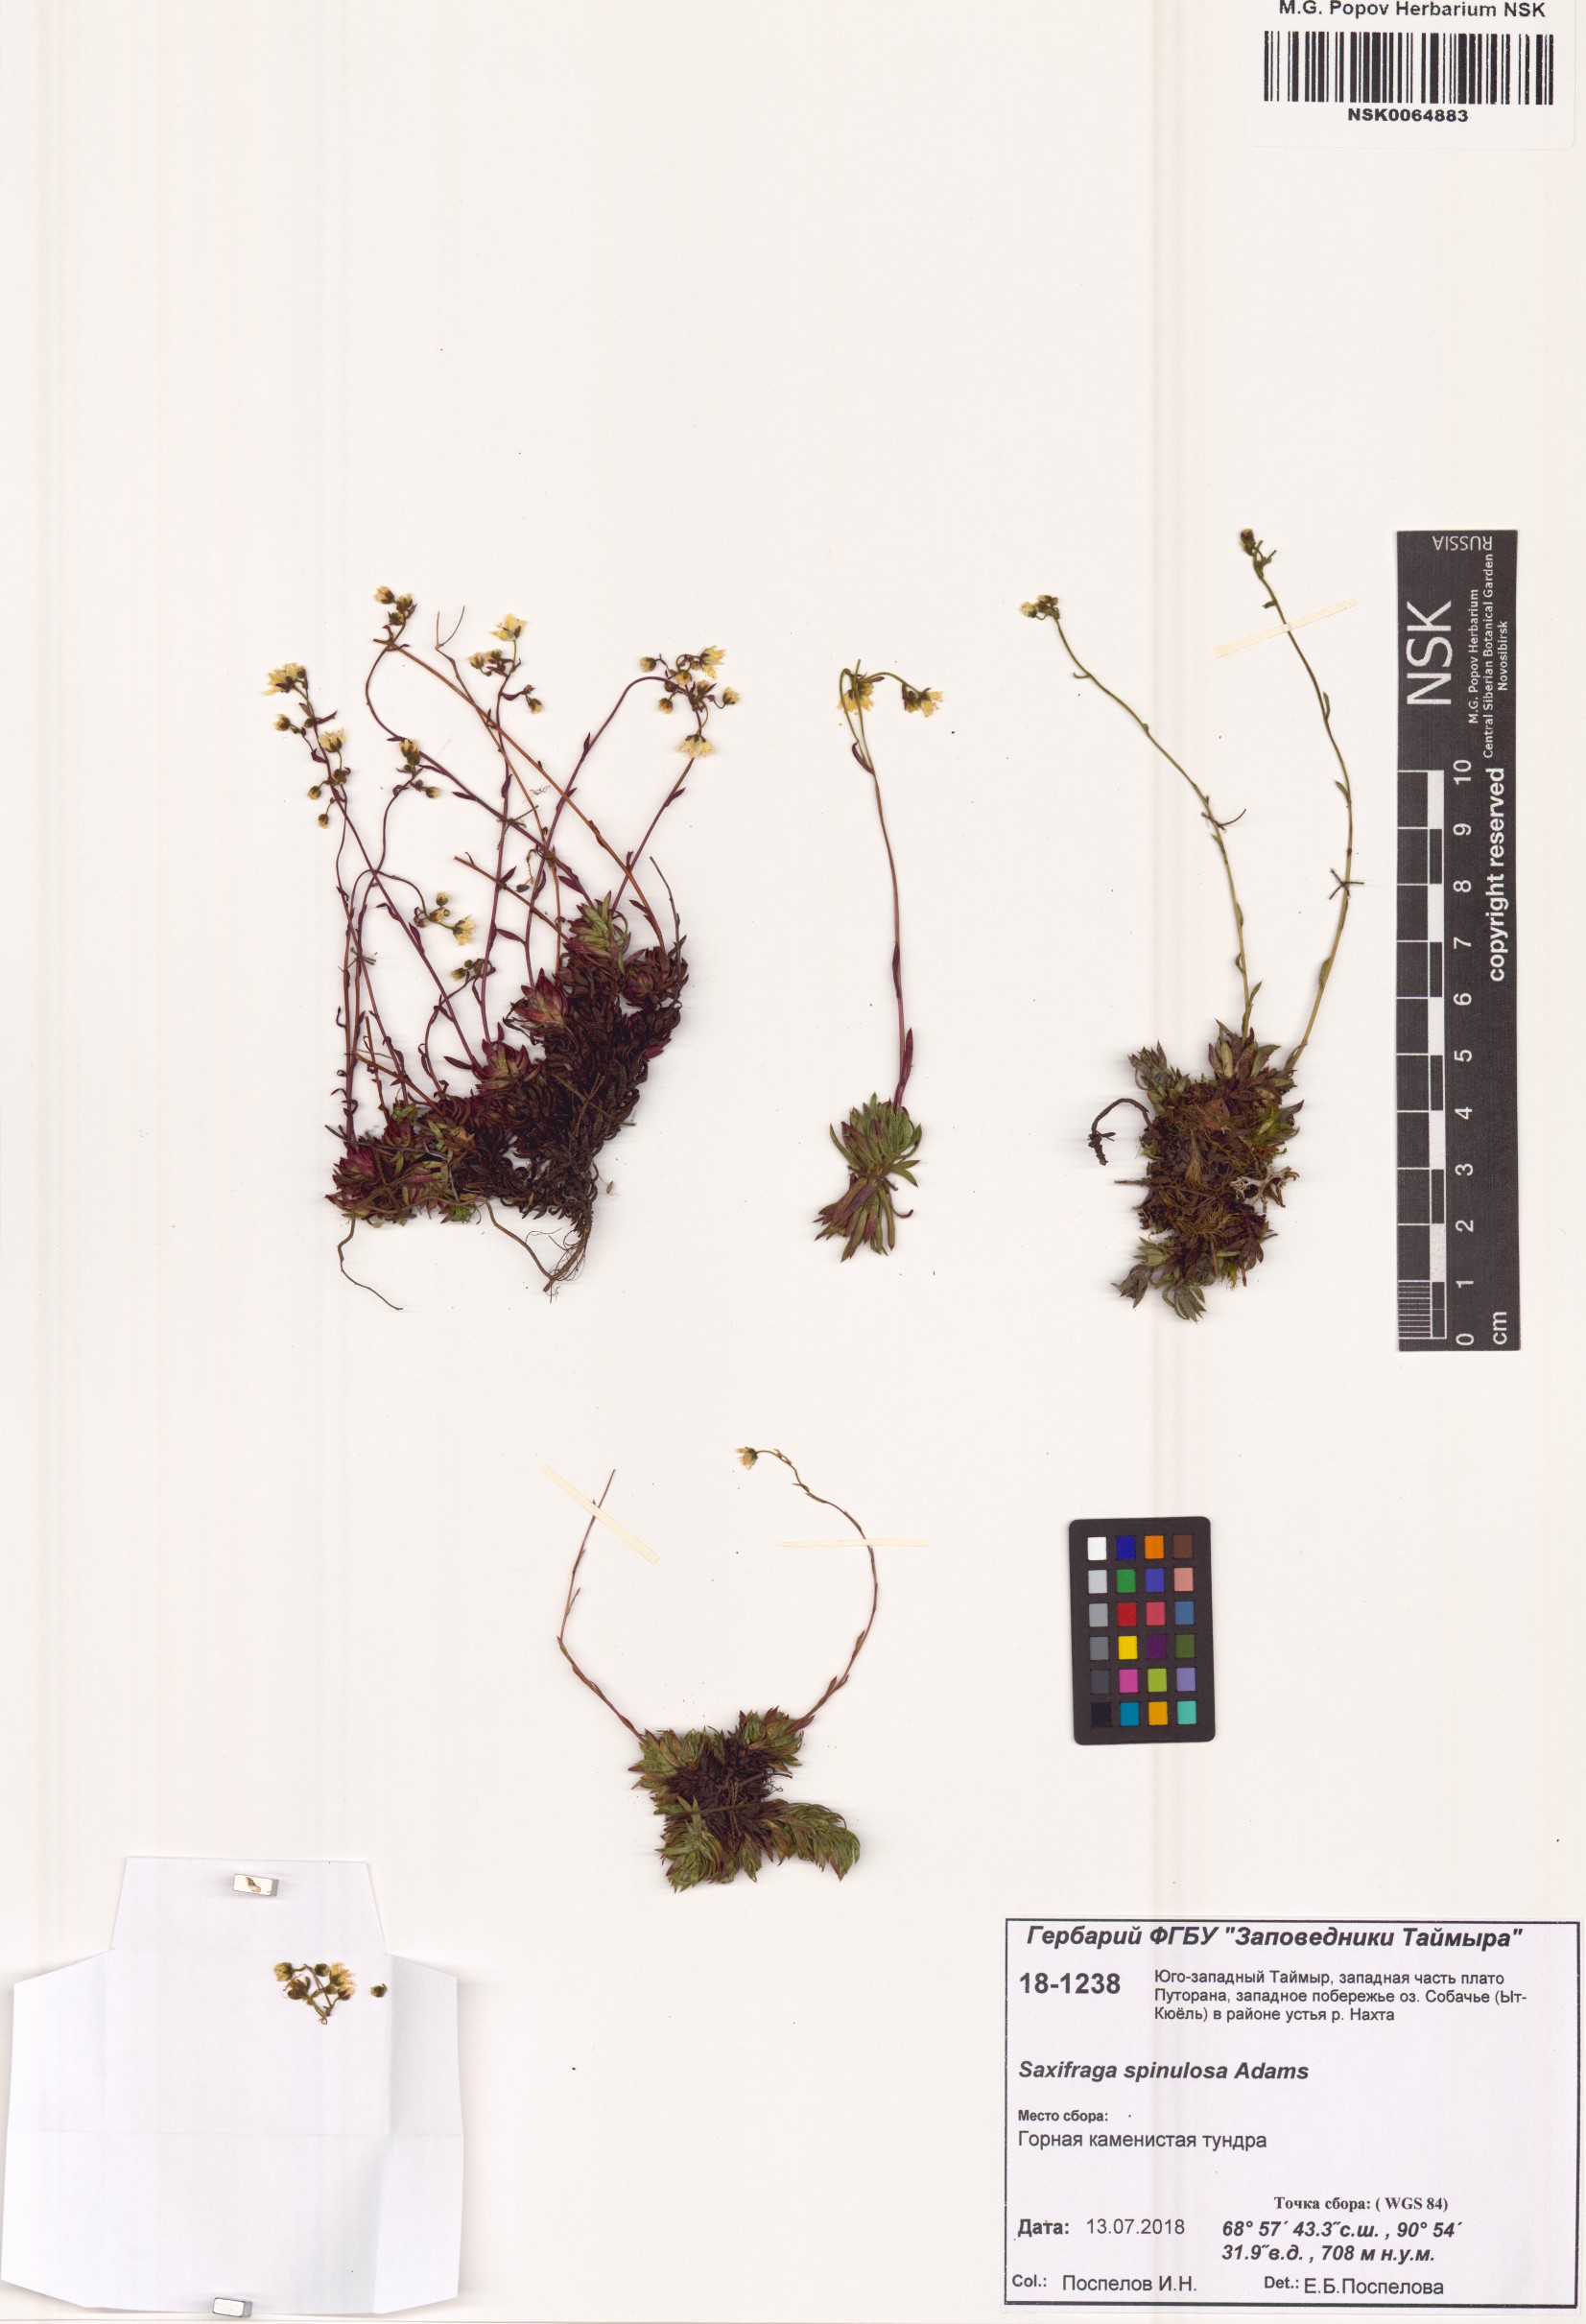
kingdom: Plantae
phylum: Tracheophyta
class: Magnoliopsida
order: Saxifragales
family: Saxifragaceae
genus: Saxifraga
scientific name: Saxifraga bronchialis
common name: Matted saxifrage
